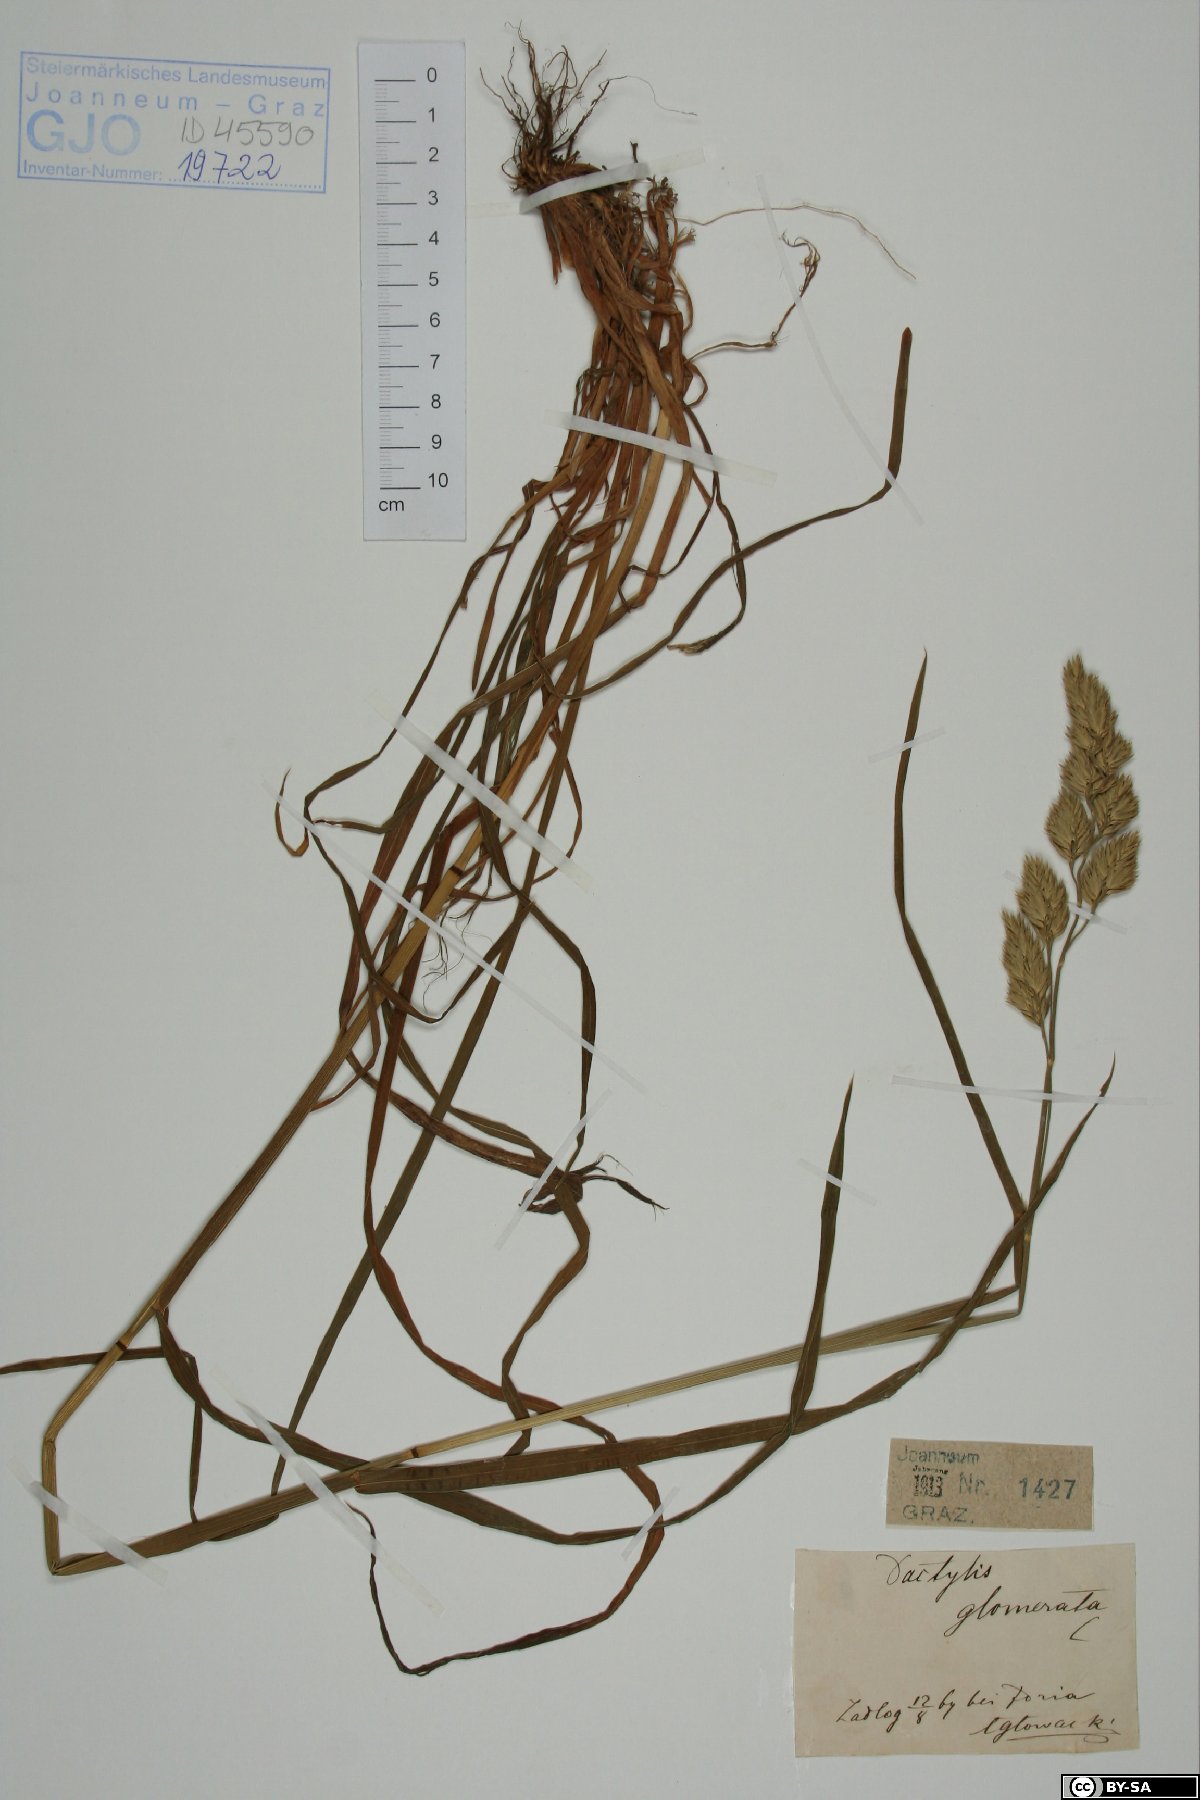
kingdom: Plantae
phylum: Tracheophyta
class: Liliopsida
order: Poales
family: Poaceae
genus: Dactylis
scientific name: Dactylis glomerata
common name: Orchardgrass
